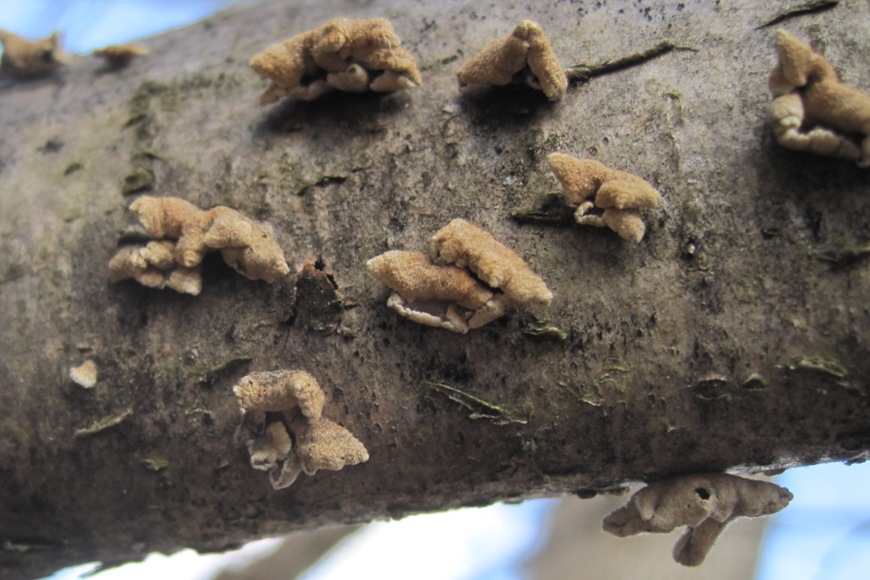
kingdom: Fungi
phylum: Basidiomycota
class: Agaricomycetes
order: Amylocorticiales
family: Amylocorticiaceae
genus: Plicaturopsis
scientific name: Plicaturopsis crispa
